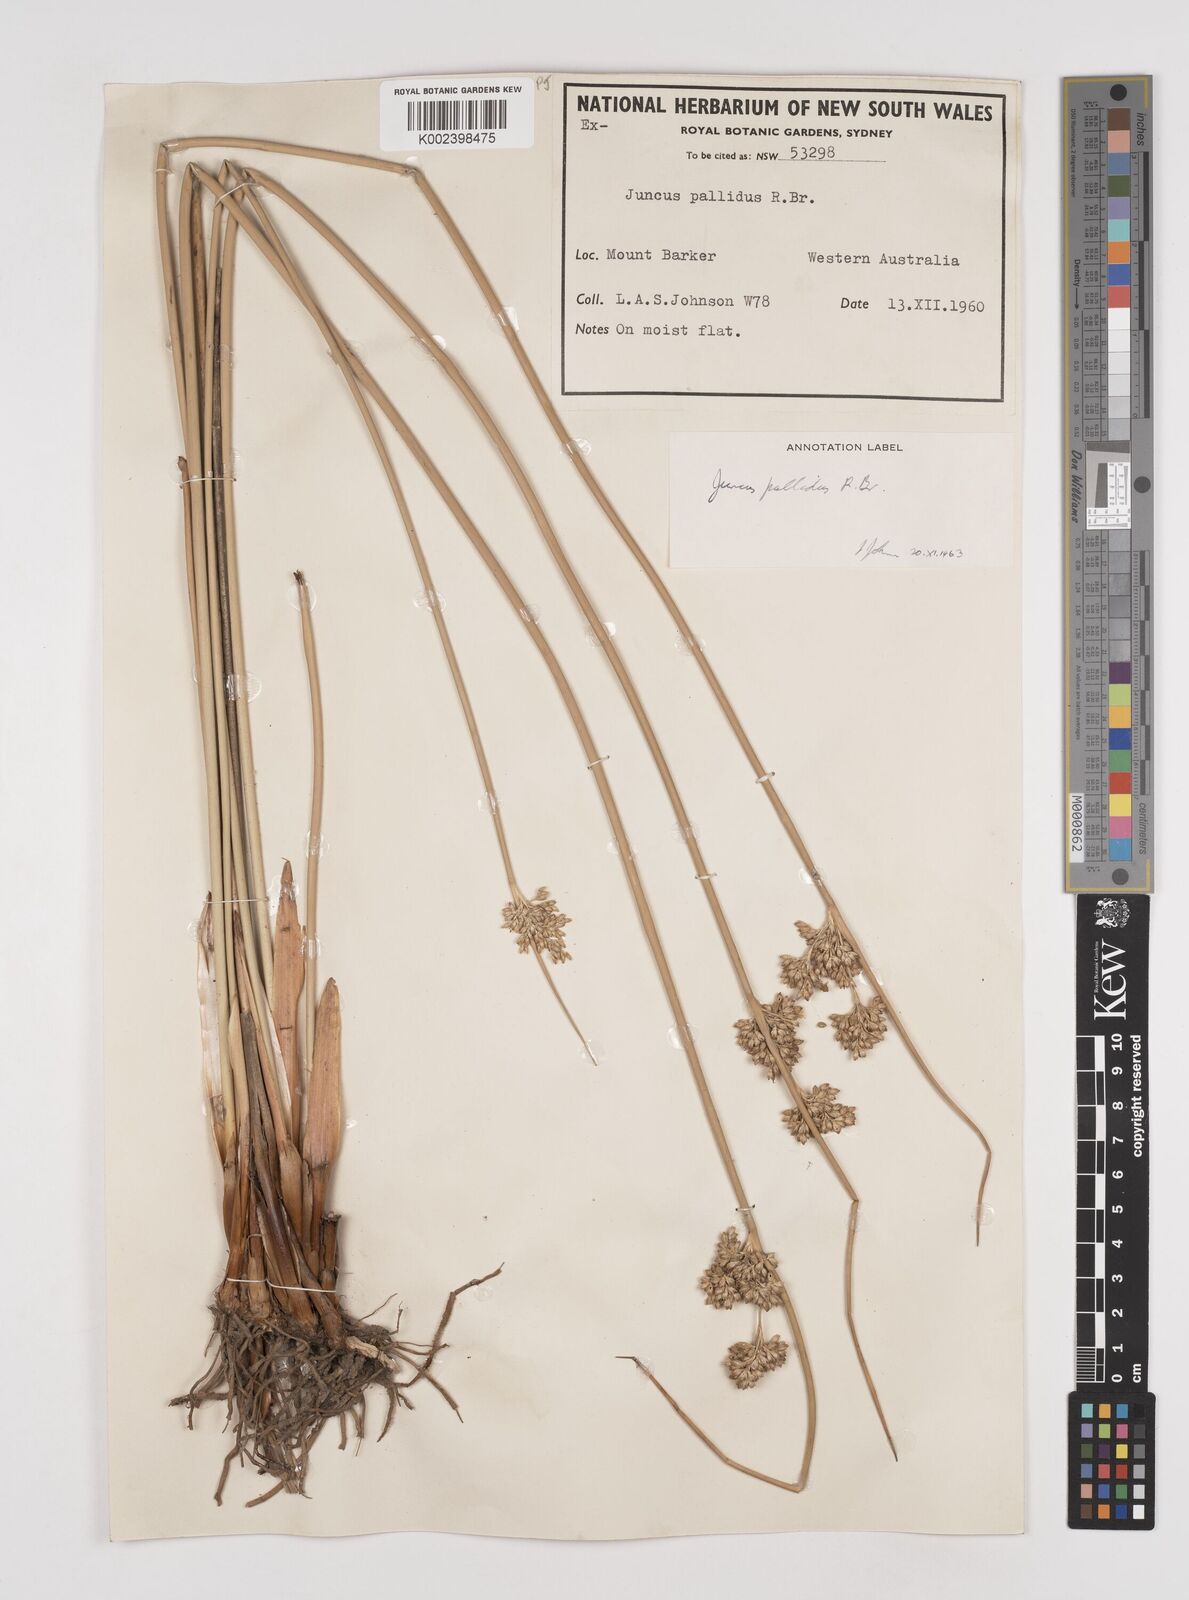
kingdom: Plantae
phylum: Tracheophyta
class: Liliopsida
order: Poales
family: Juncaceae
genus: Juncus
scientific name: Juncus pallidus
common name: Great soft-rush
